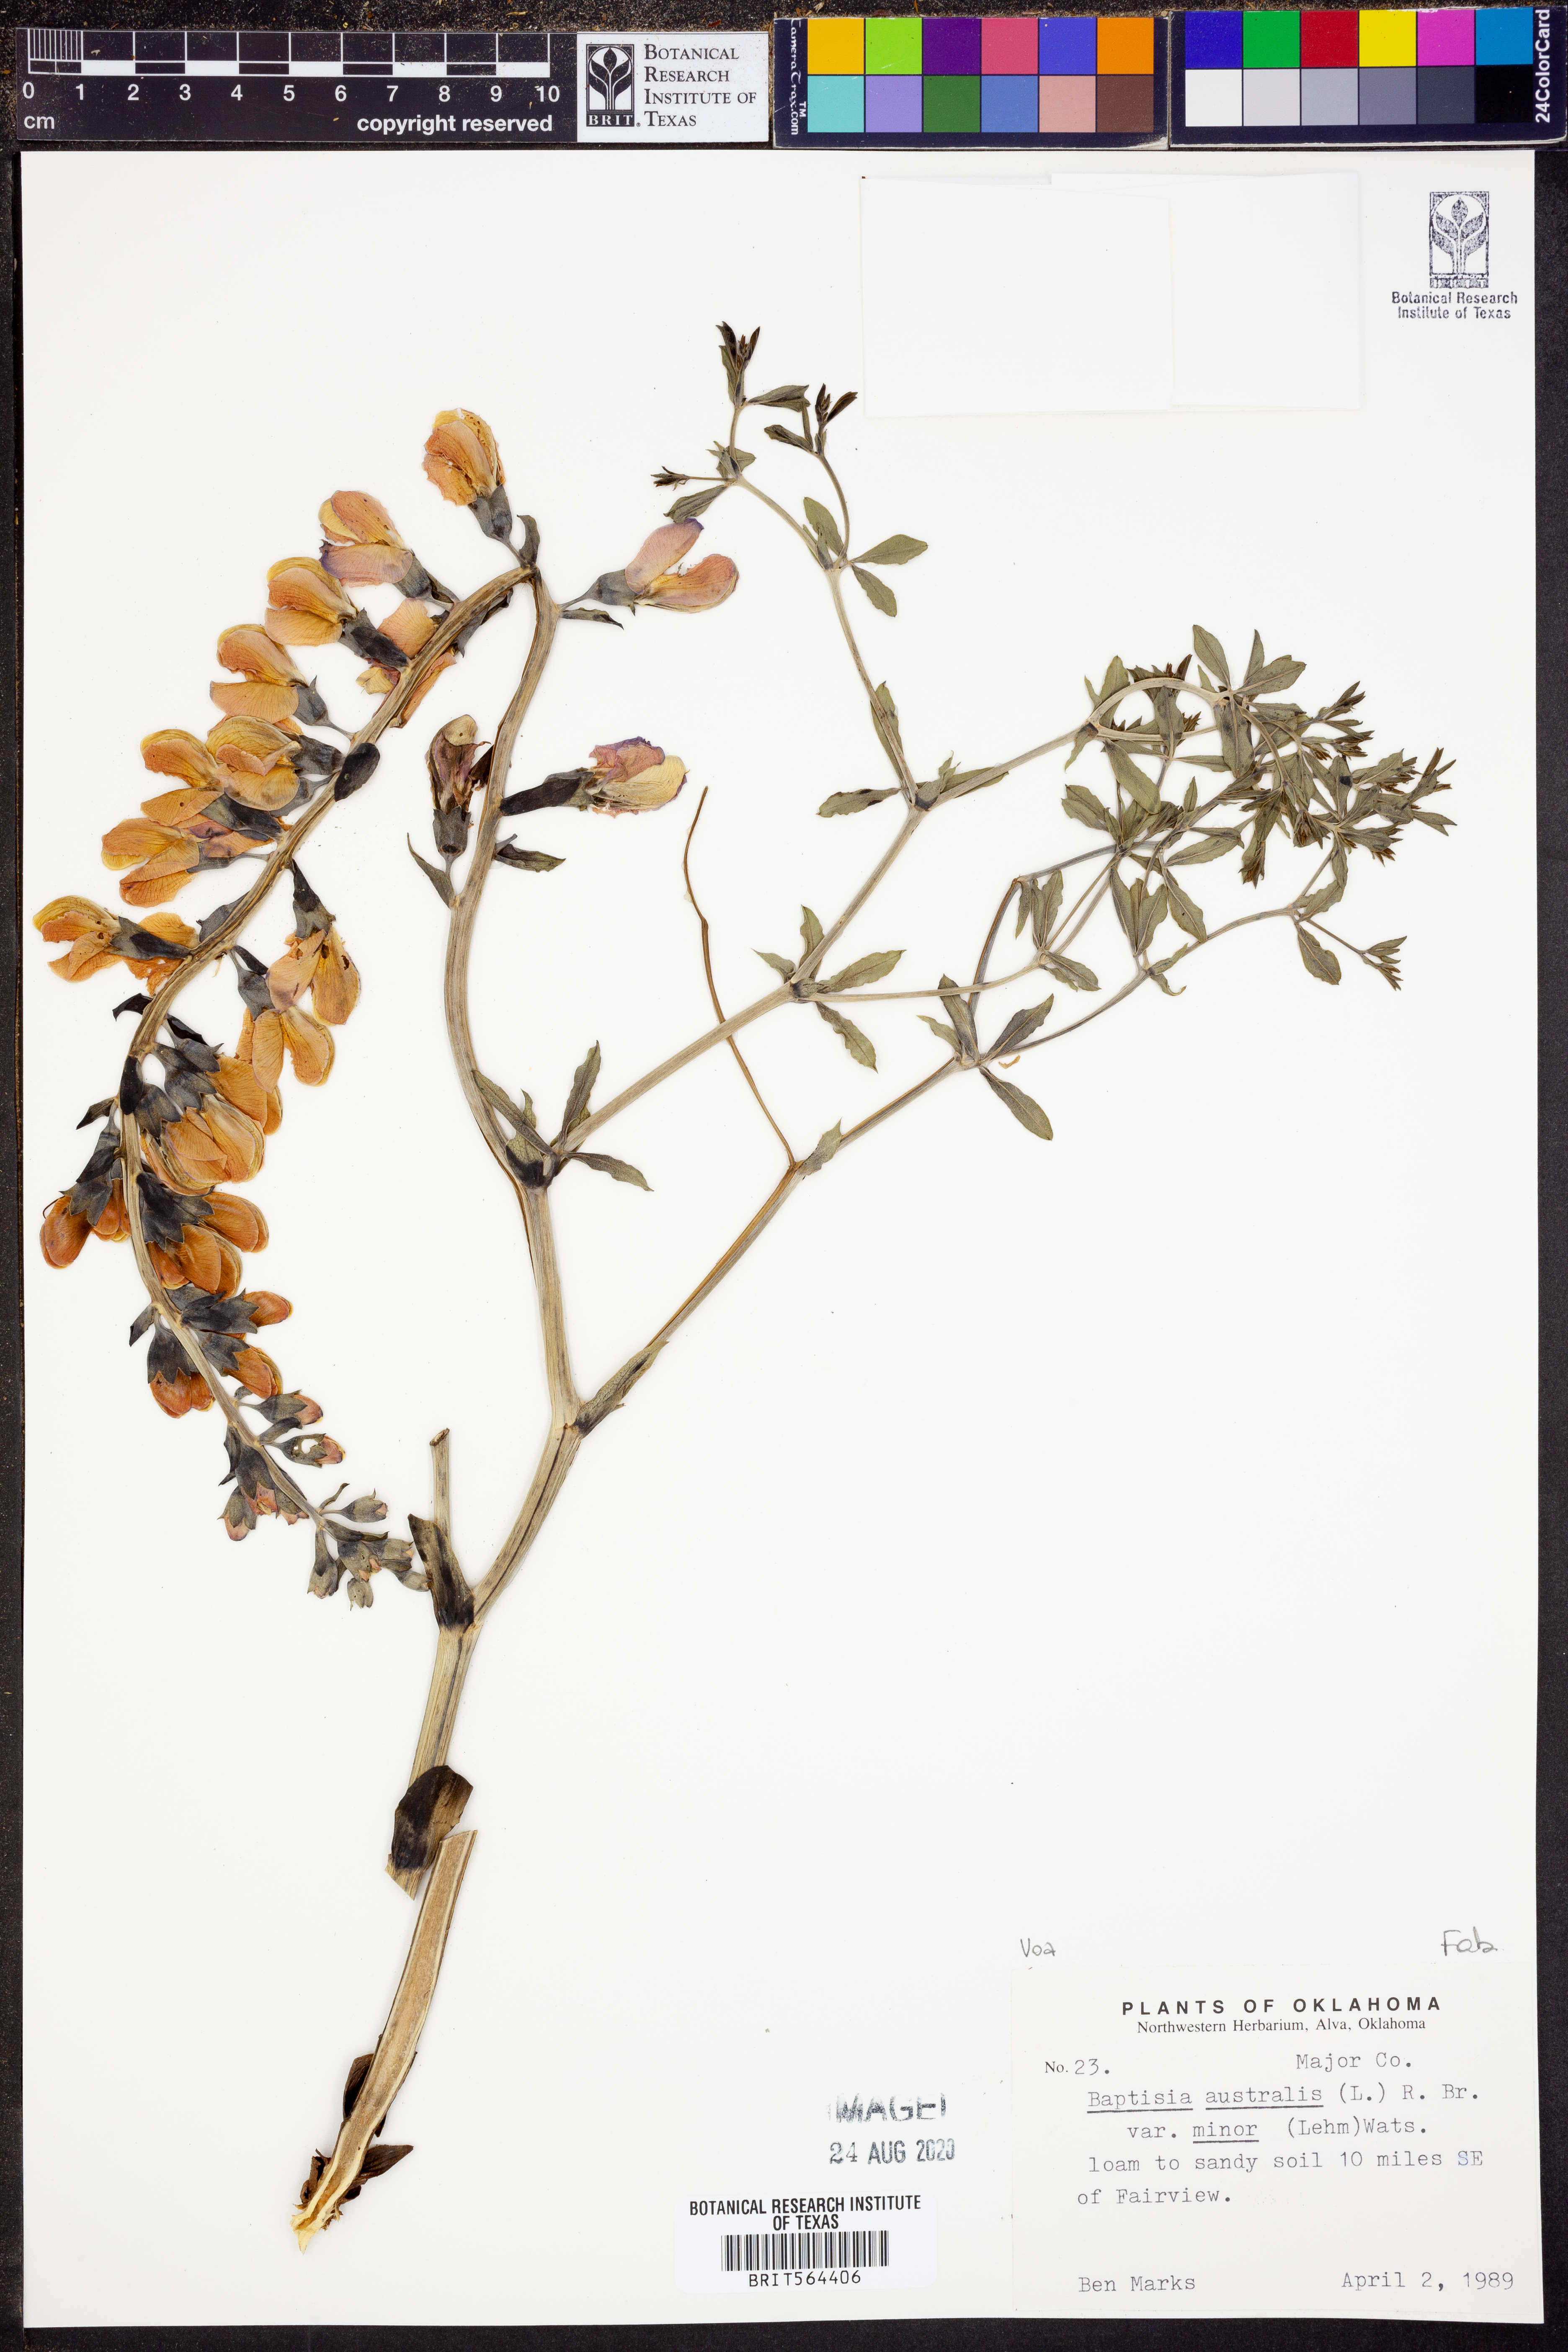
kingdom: Plantae
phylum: Tracheophyta
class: Magnoliopsida
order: Fabales
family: Fabaceae
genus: Baptisia
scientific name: Baptisia australis
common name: Blue false indigo
